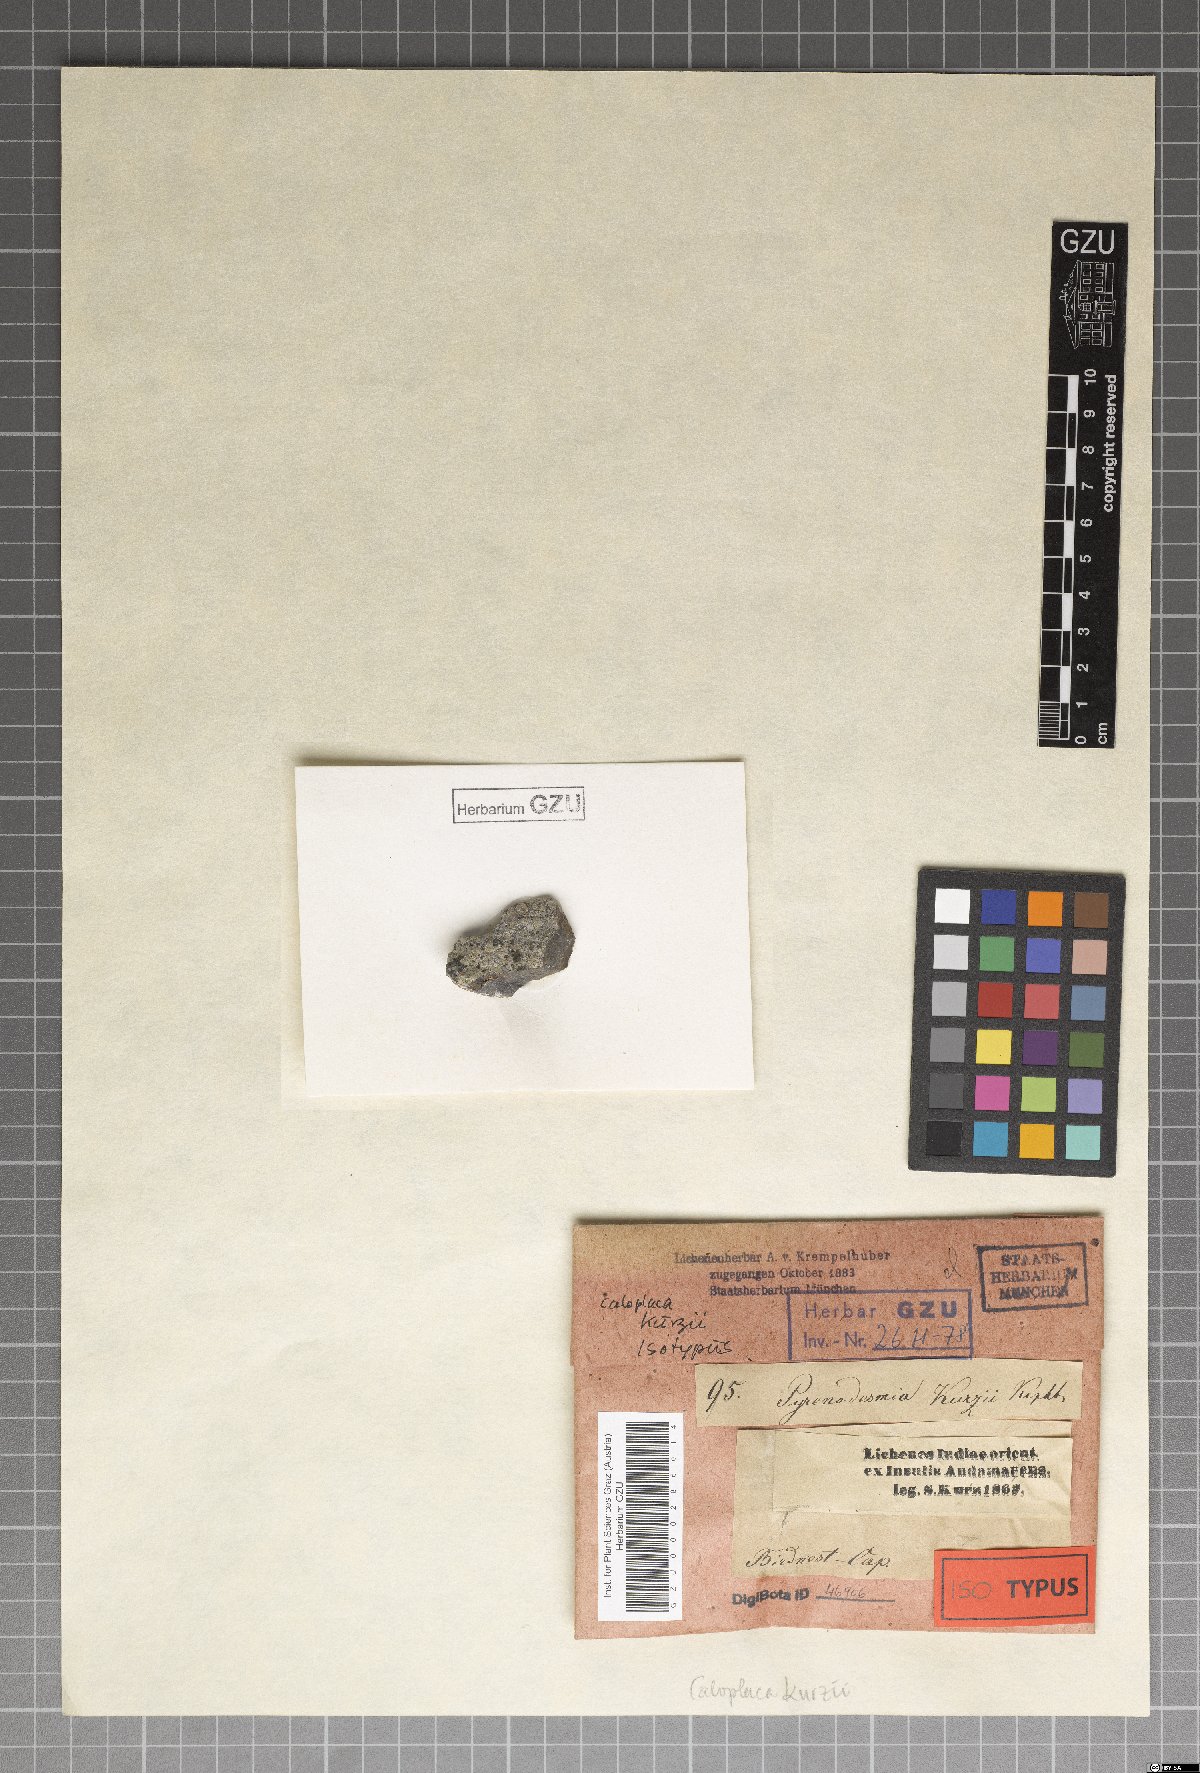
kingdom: Fungi
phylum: Ascomycota
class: Lecanoromycetes
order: Teloschistales
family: Teloschistaceae
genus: Caloplaca
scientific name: Caloplaca kurzii
